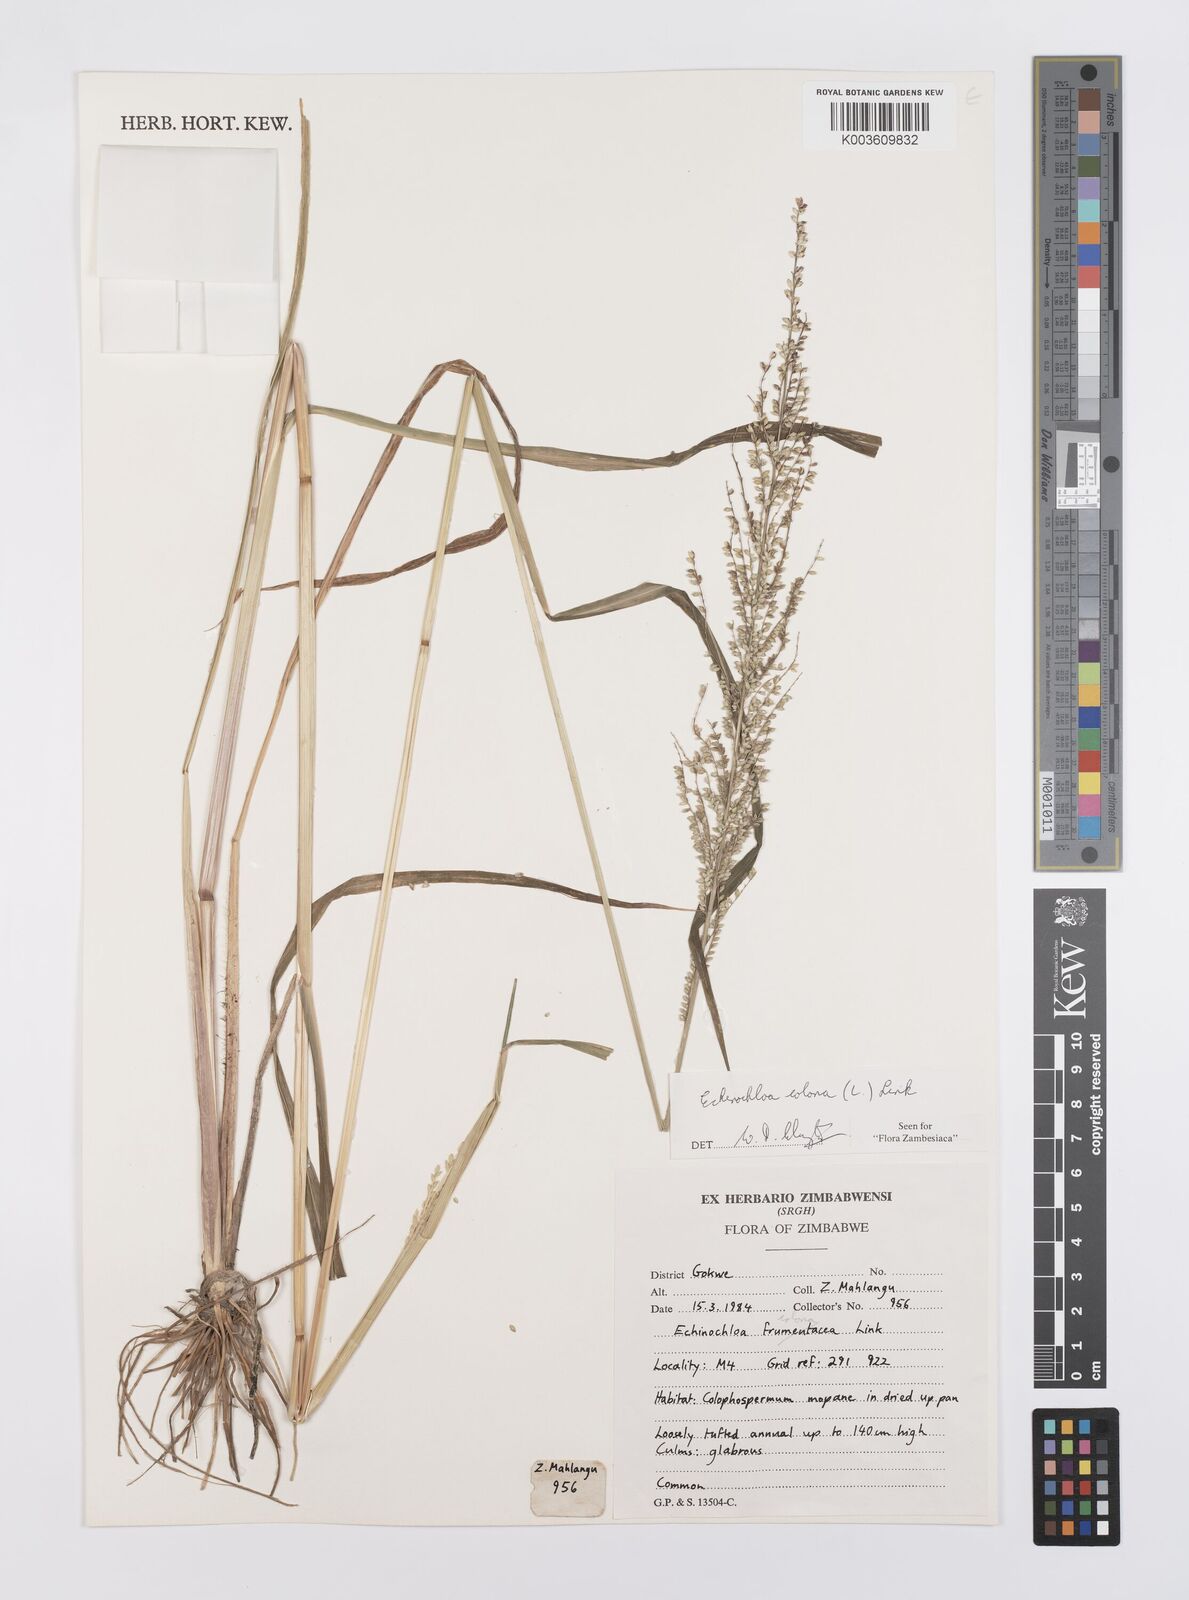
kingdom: Plantae
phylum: Tracheophyta
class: Liliopsida
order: Poales
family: Poaceae
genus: Echinochloa
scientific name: Echinochloa colonum
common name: Jungle rice
